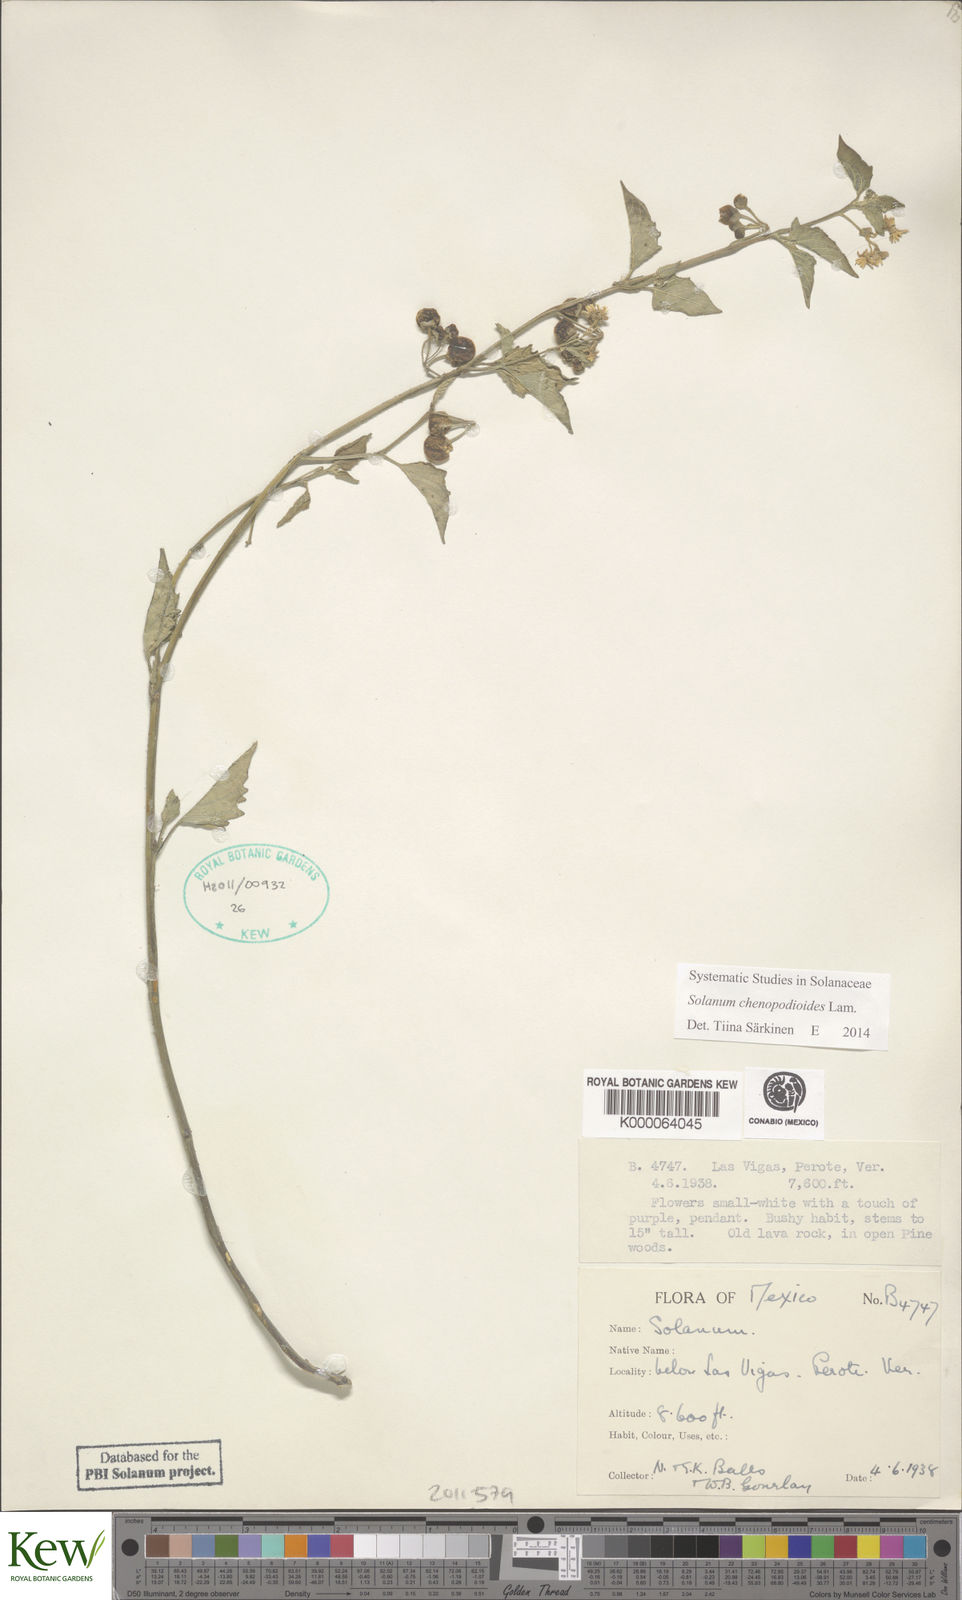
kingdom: Plantae
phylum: Tracheophyta
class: Magnoliopsida
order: Solanales
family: Solanaceae
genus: Solanum
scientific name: Solanum
